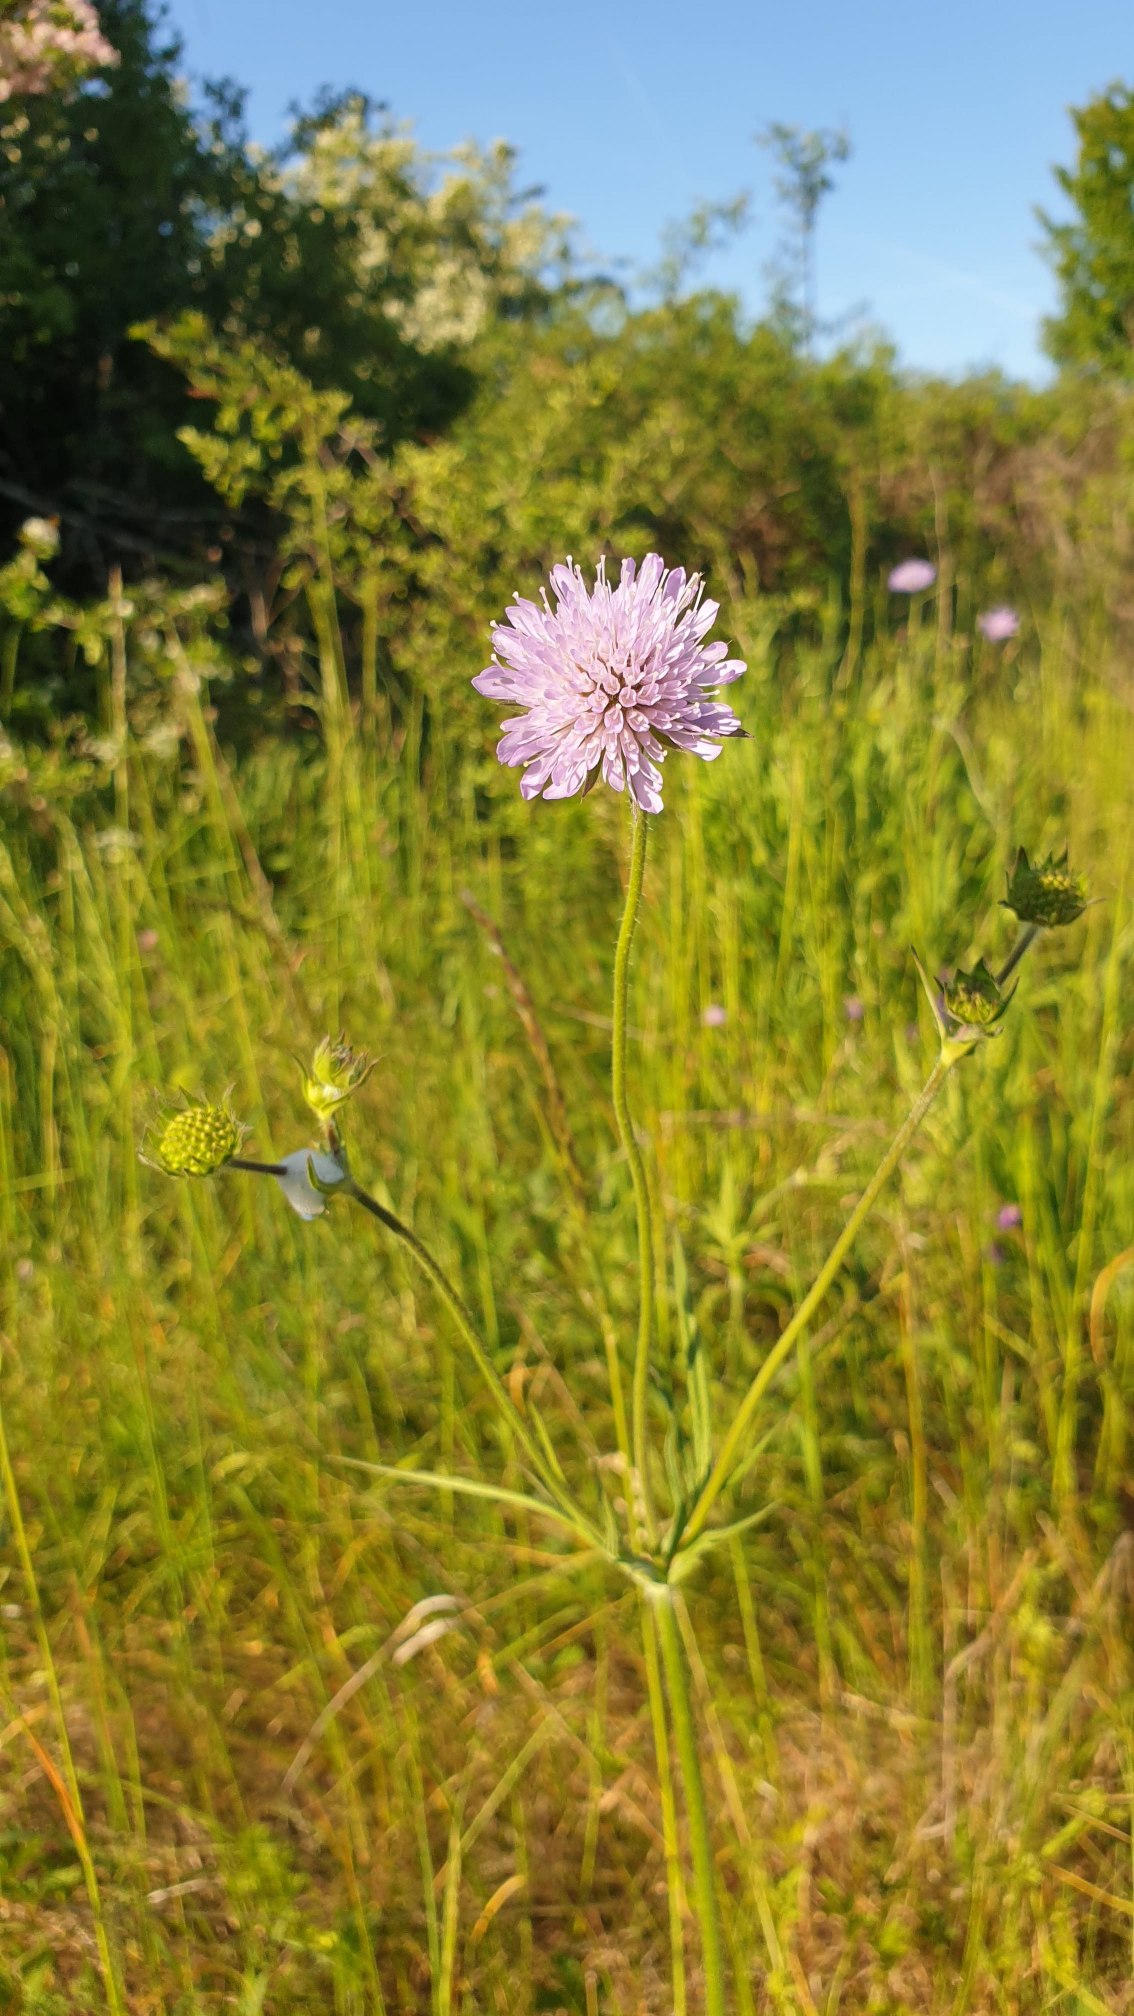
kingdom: Plantae
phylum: Tracheophyta
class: Magnoliopsida
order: Dipsacales
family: Caprifoliaceae
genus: Knautia
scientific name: Knautia arvensis
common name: Blåhat
